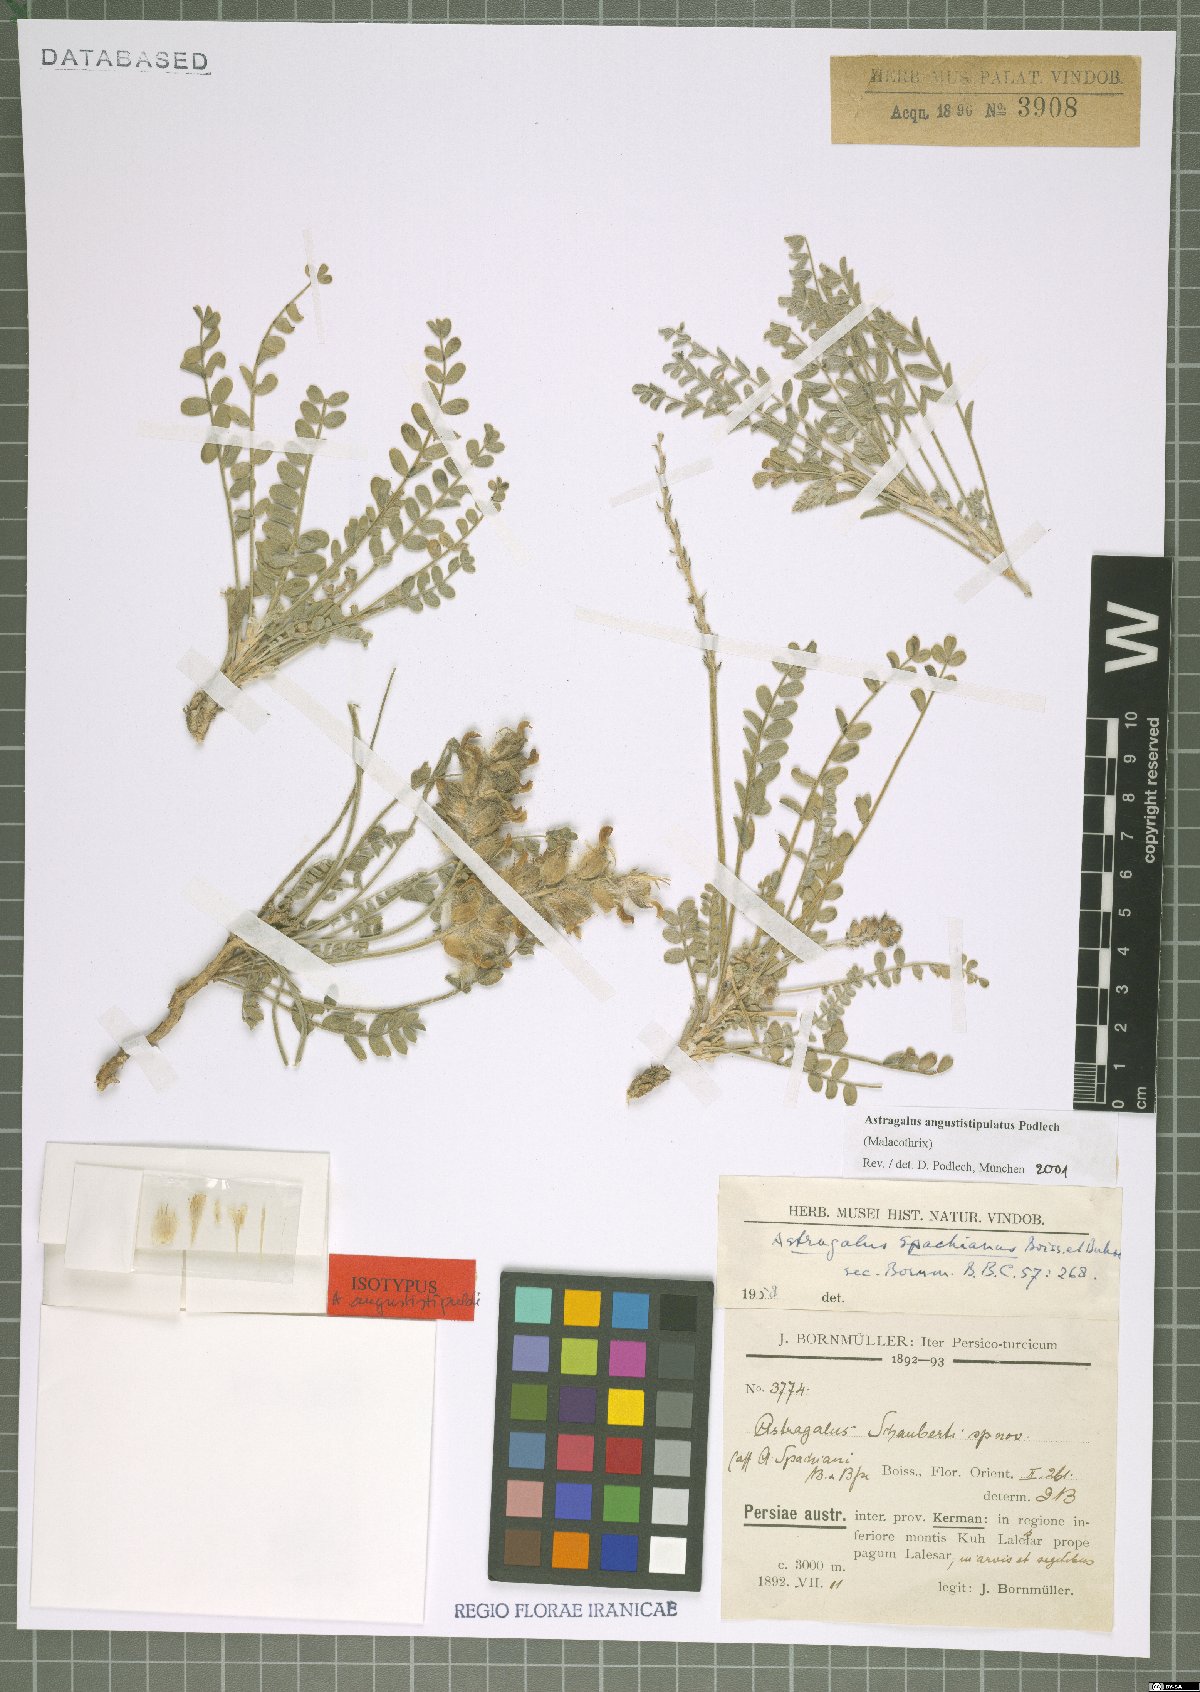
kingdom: Plantae
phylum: Tracheophyta
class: Magnoliopsida
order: Fabales
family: Fabaceae
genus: Astragalus
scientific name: Astragalus angustistipulatus
